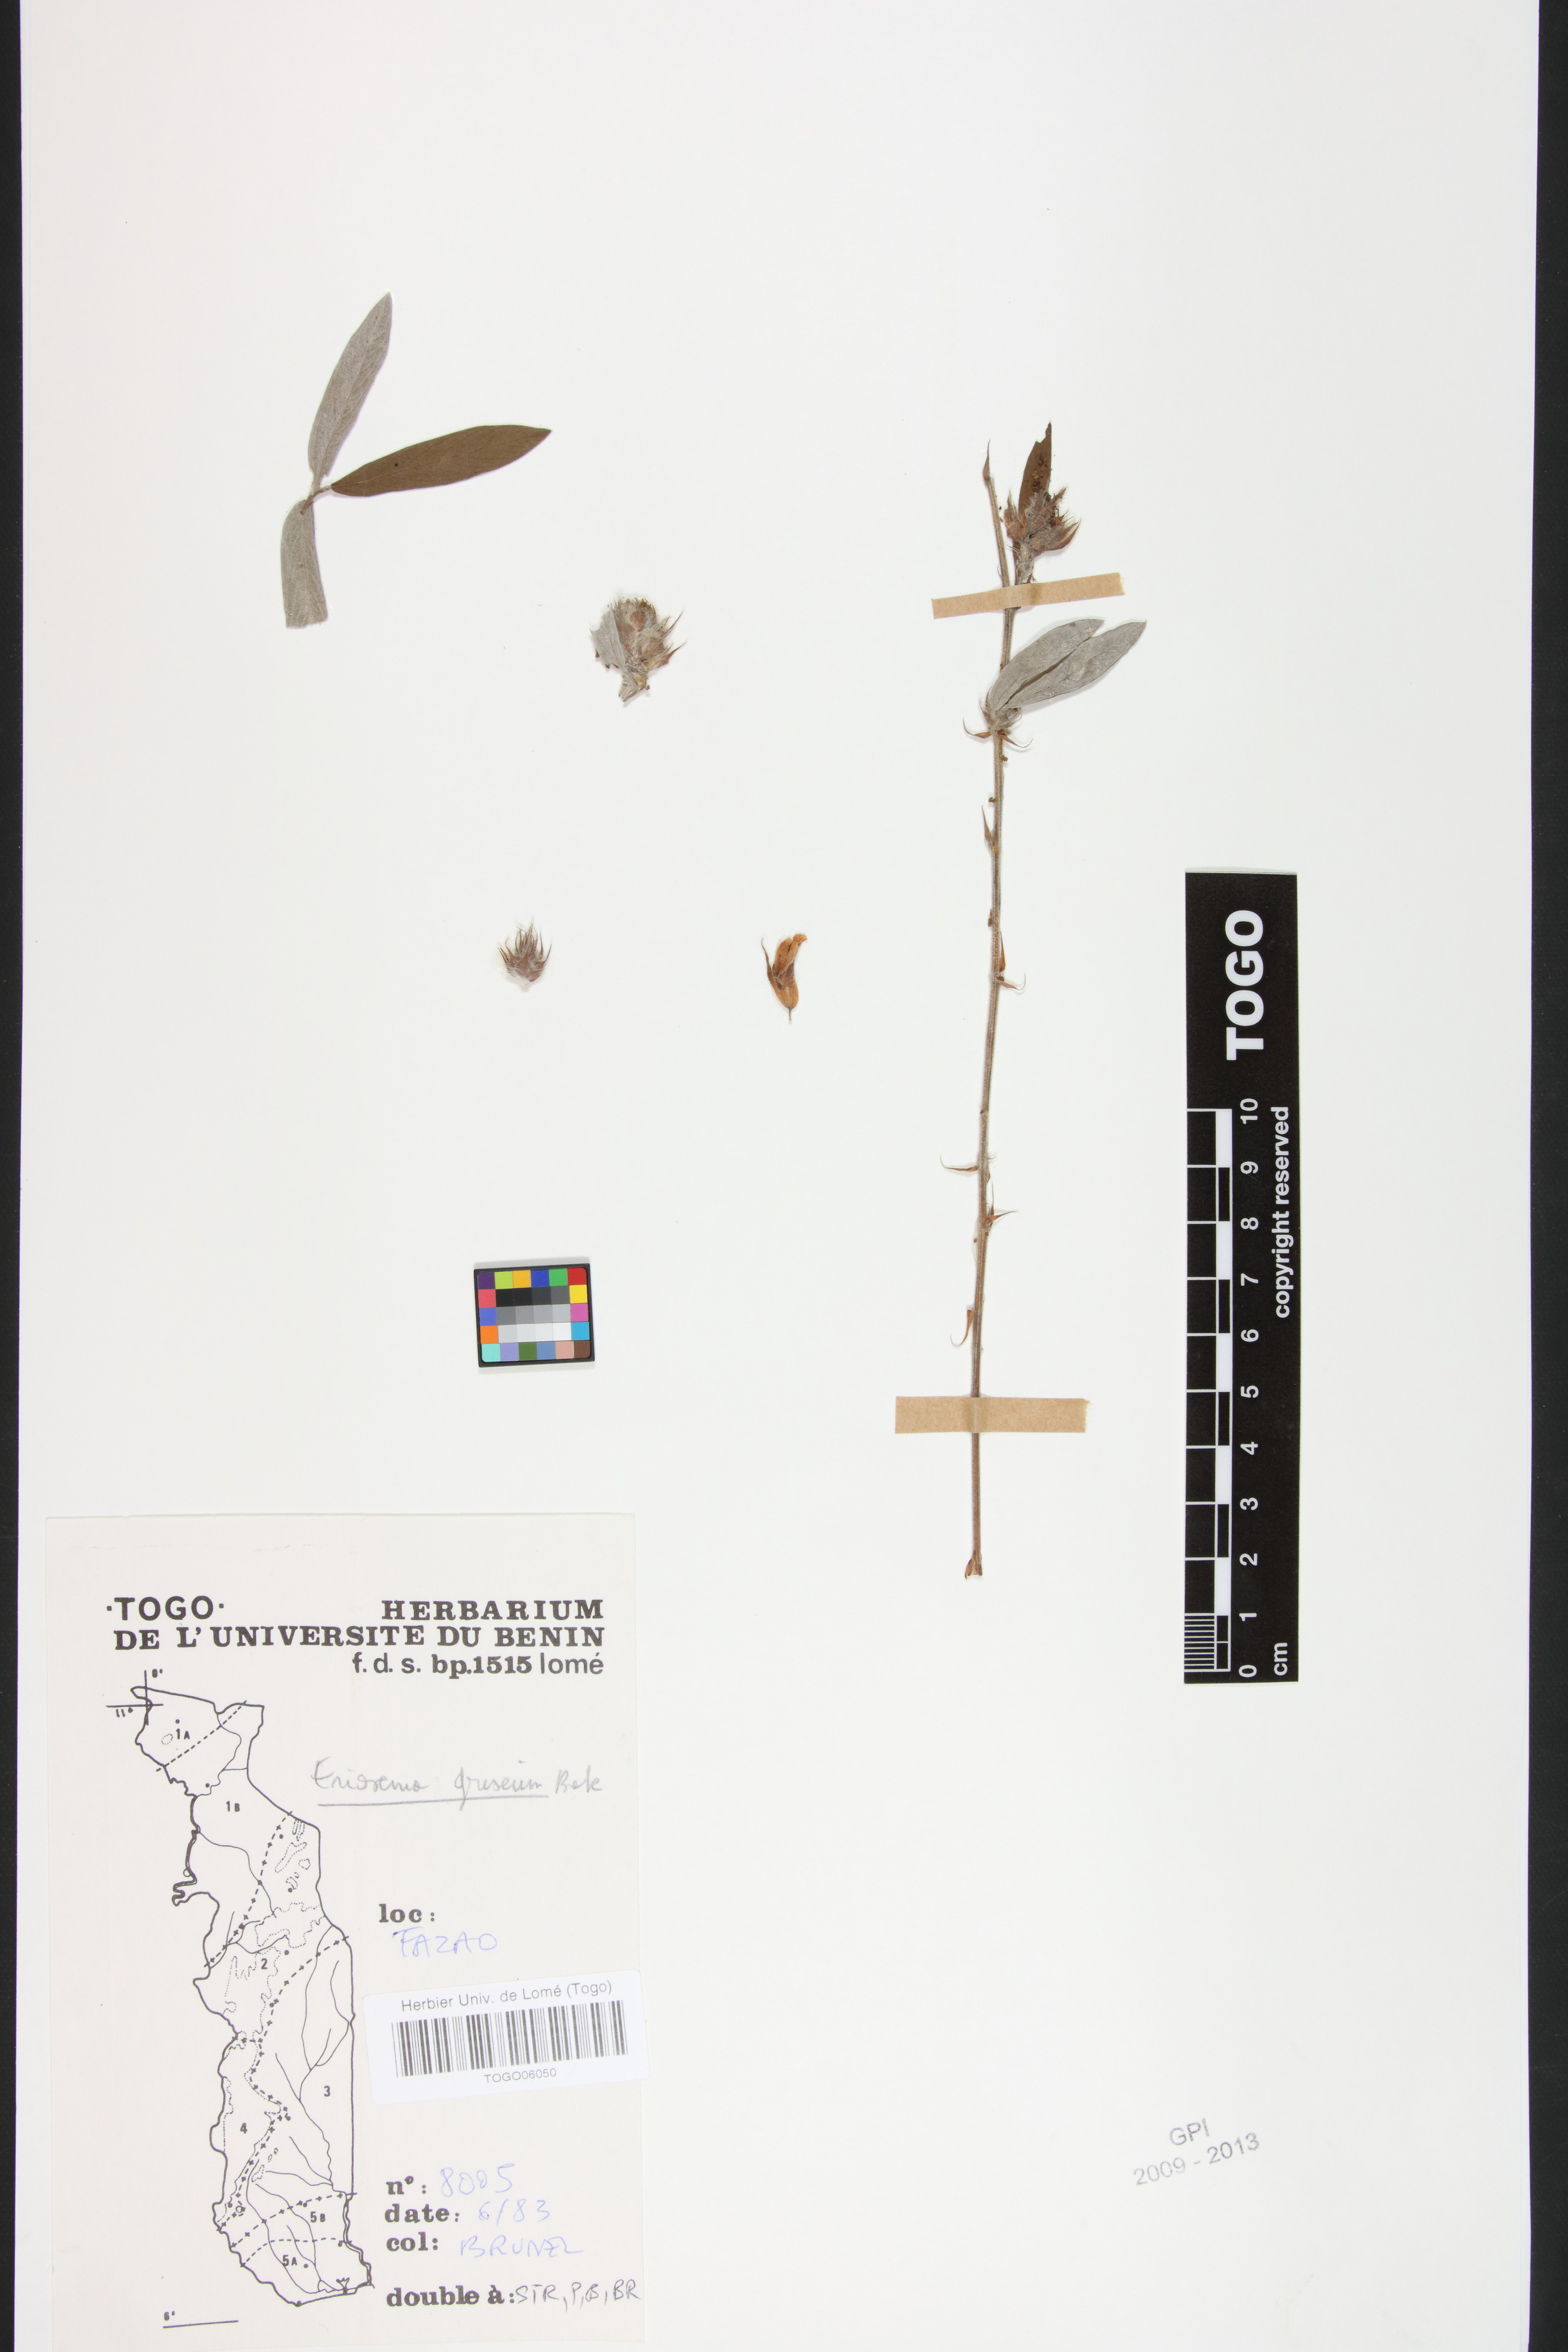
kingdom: Plantae
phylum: Tracheophyta
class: Magnoliopsida
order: Fabales
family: Fabaceae
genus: Eriosema
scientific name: Eriosema griseum
